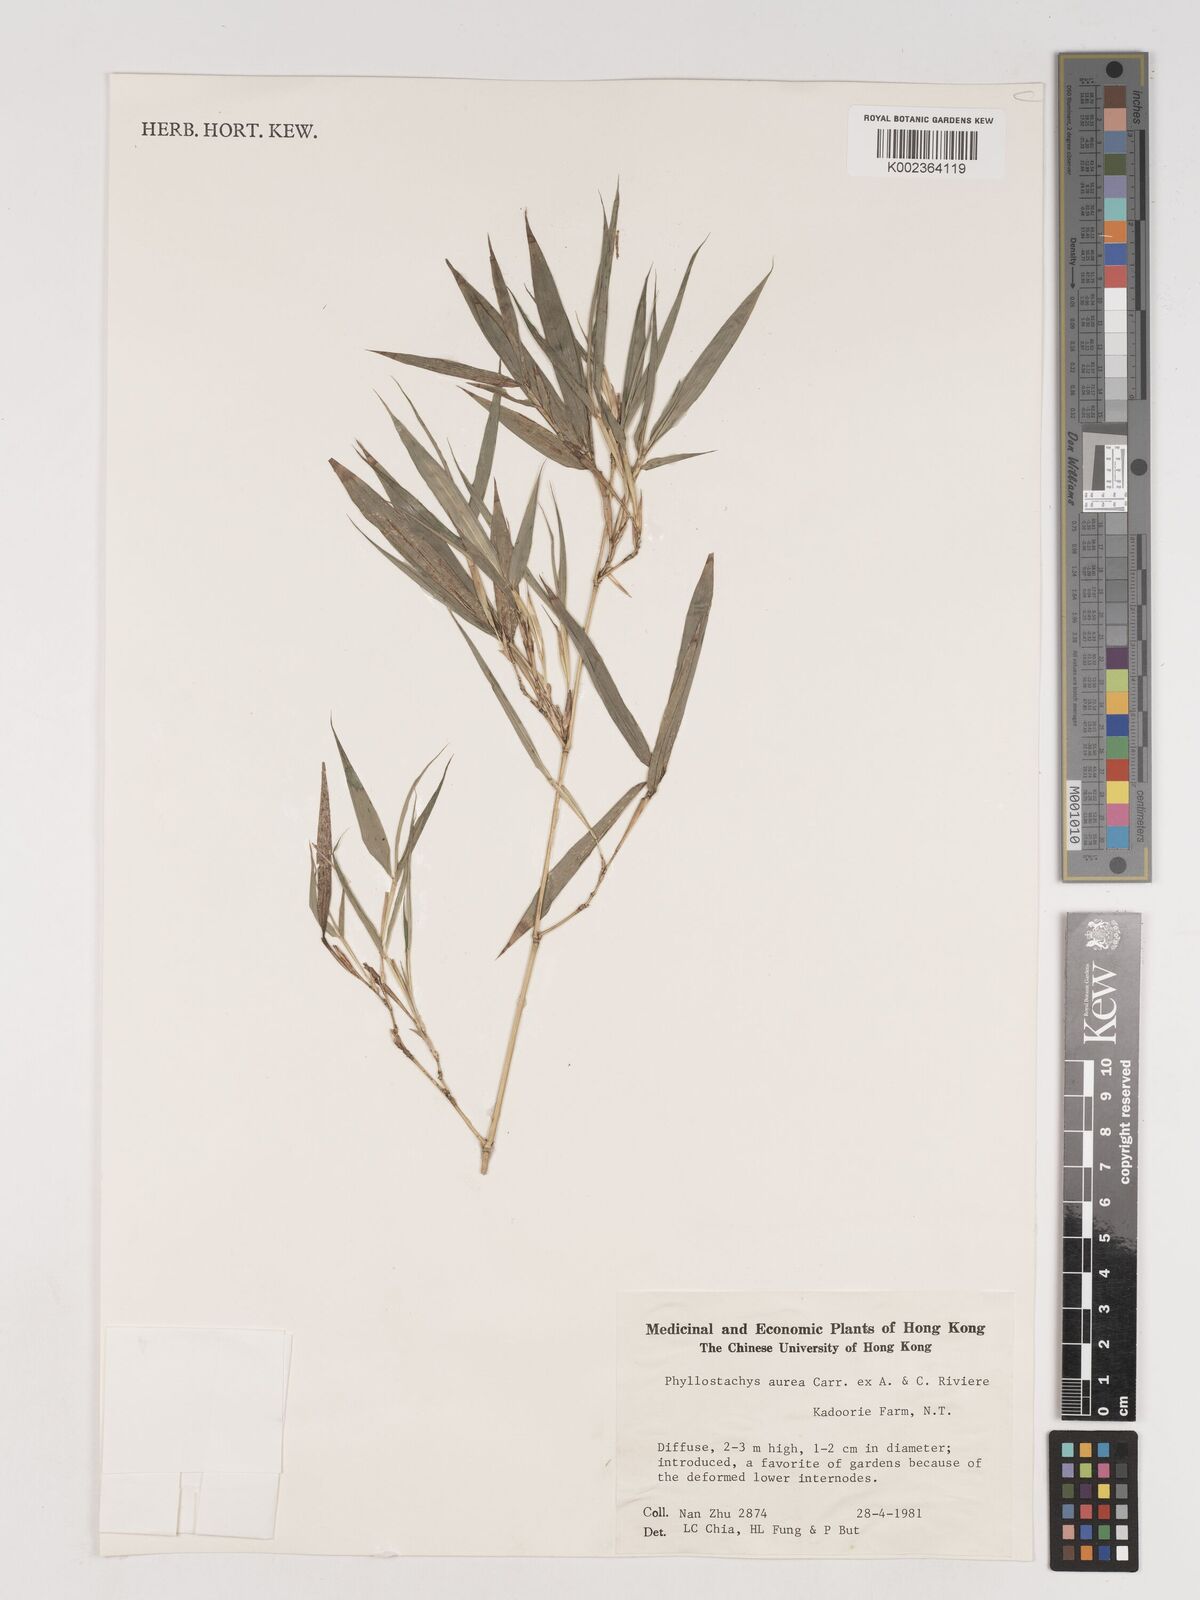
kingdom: Plantae
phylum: Tracheophyta
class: Liliopsida
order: Poales
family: Poaceae
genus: Phyllostachys
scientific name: Phyllostachys aurea
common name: Golden bamboo
